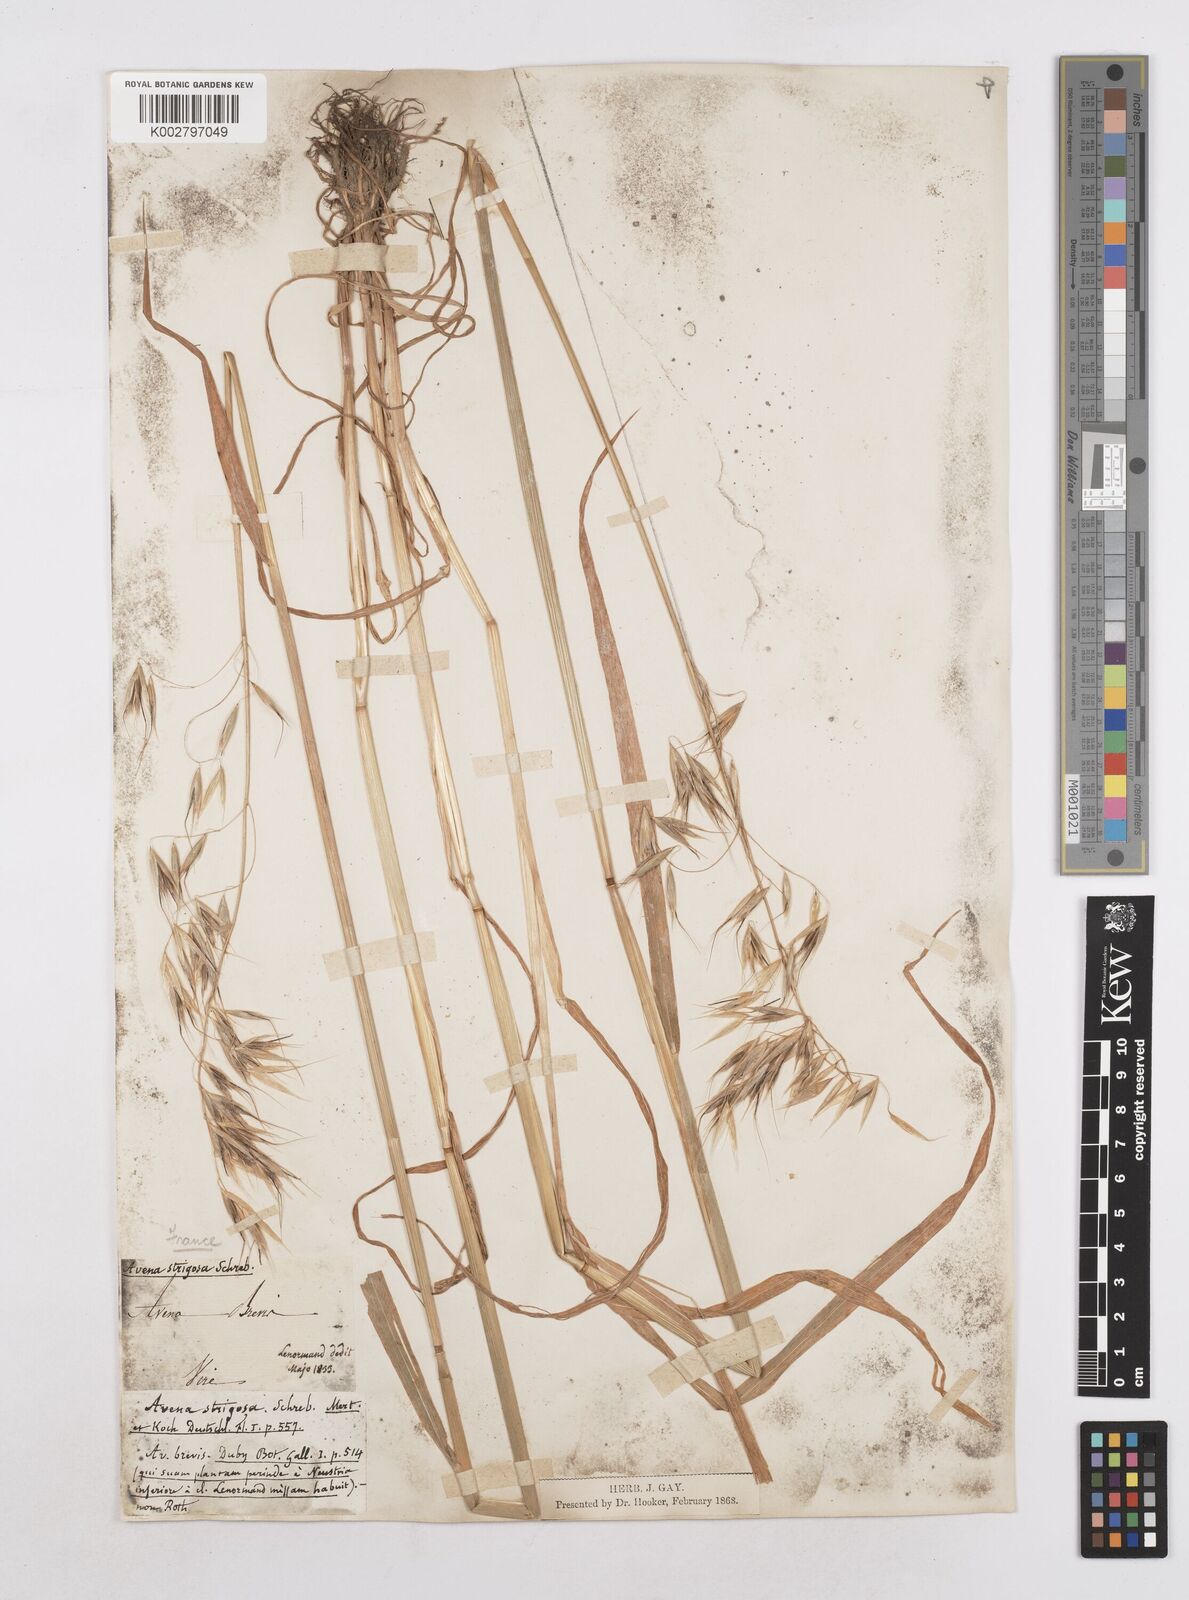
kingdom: Plantae
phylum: Tracheophyta
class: Liliopsida
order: Poales
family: Poaceae
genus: Avena
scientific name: Avena strigosa
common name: Bristle oat
